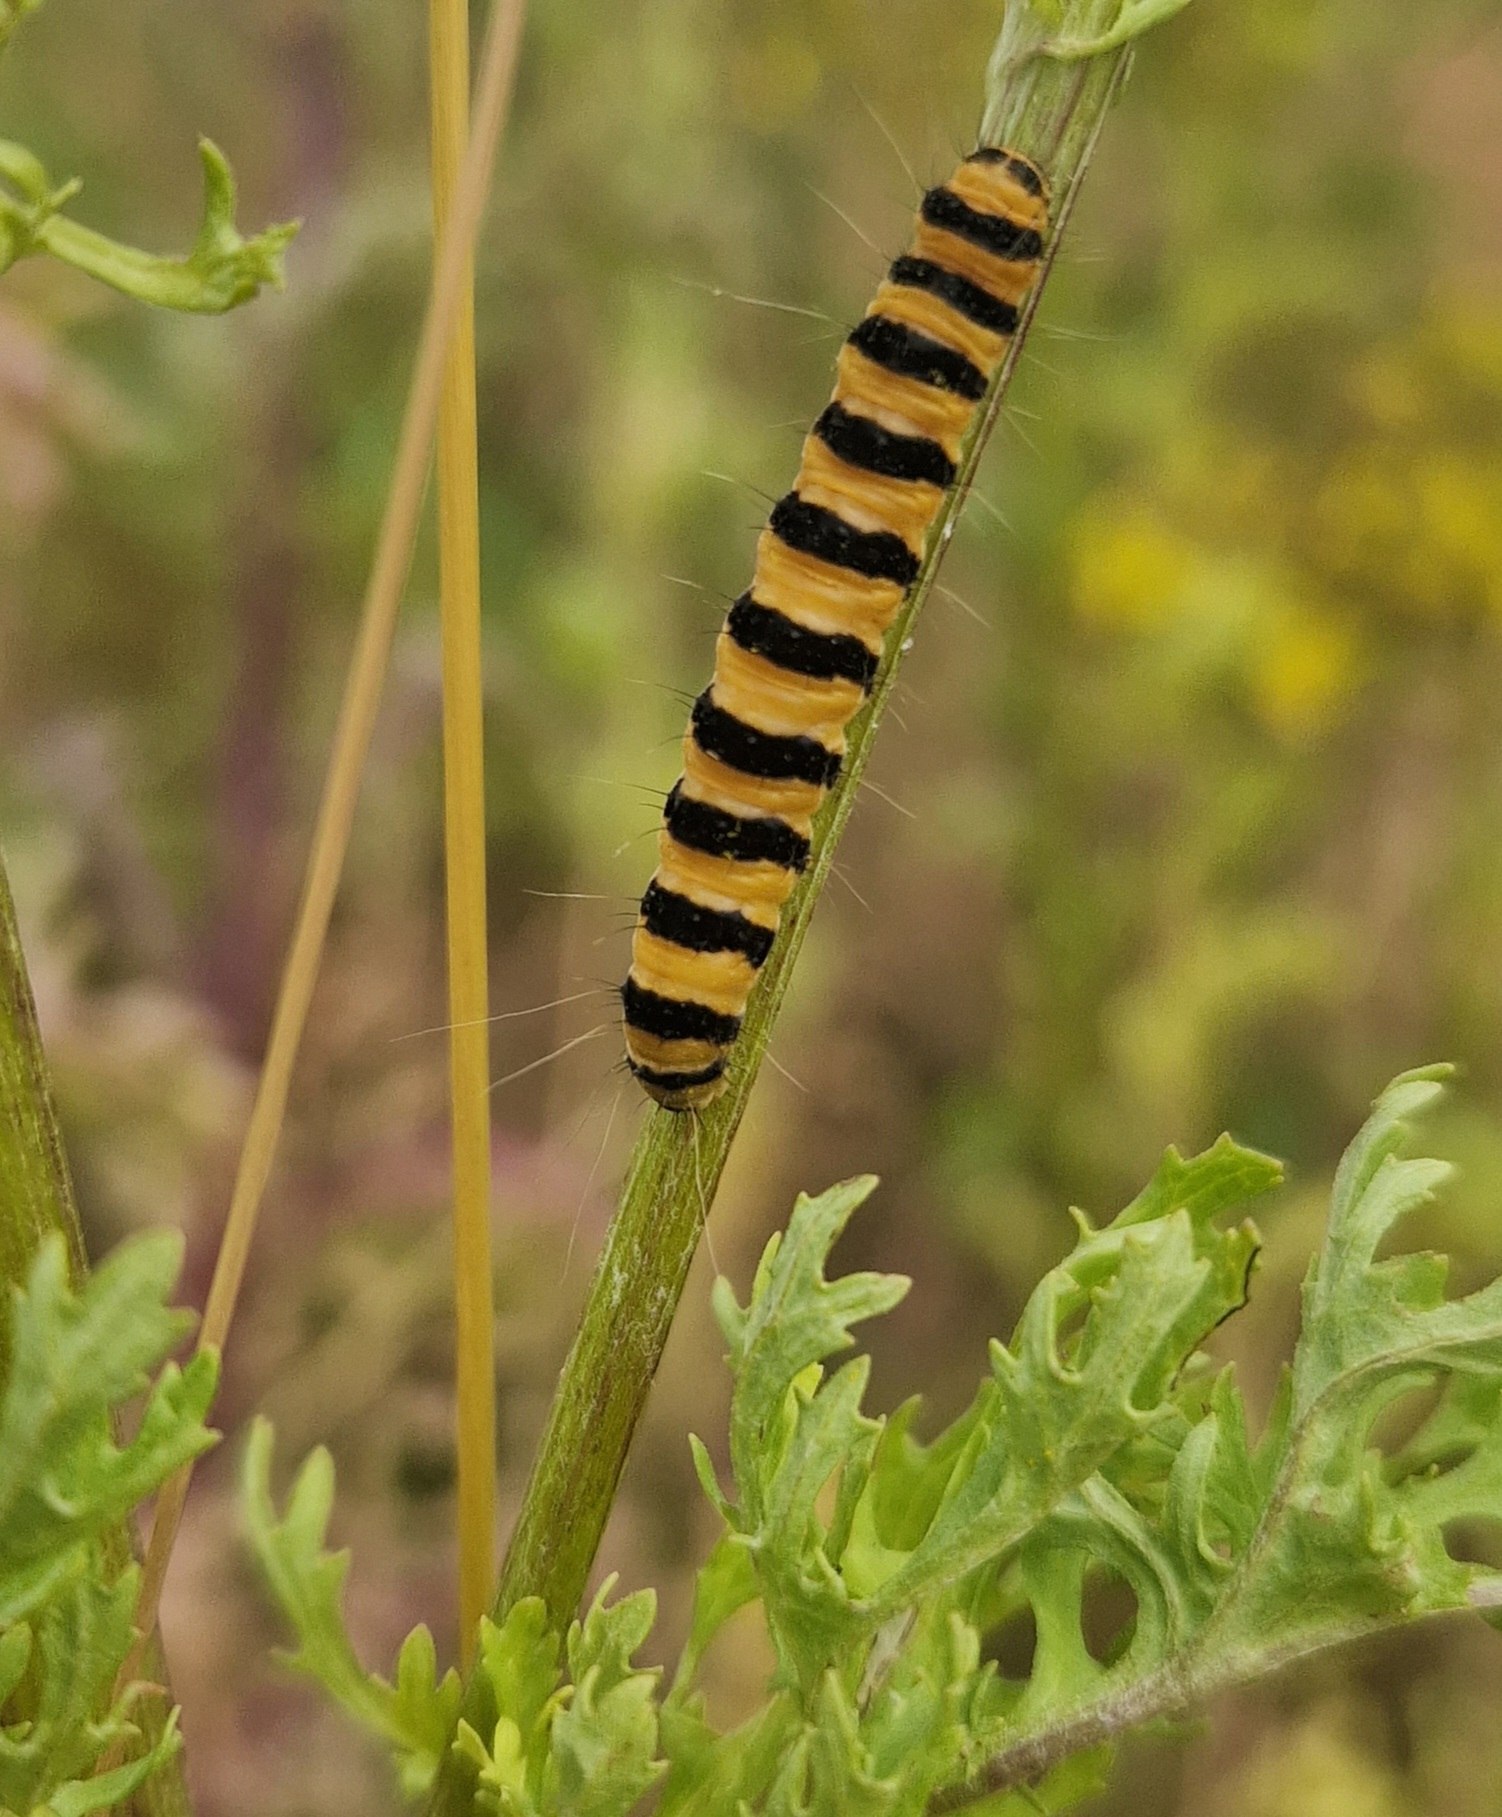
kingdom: Animalia
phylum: Arthropoda
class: Insecta
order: Lepidoptera
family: Erebidae
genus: Tyria
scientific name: Tyria jacobaeae
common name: Blodplet
